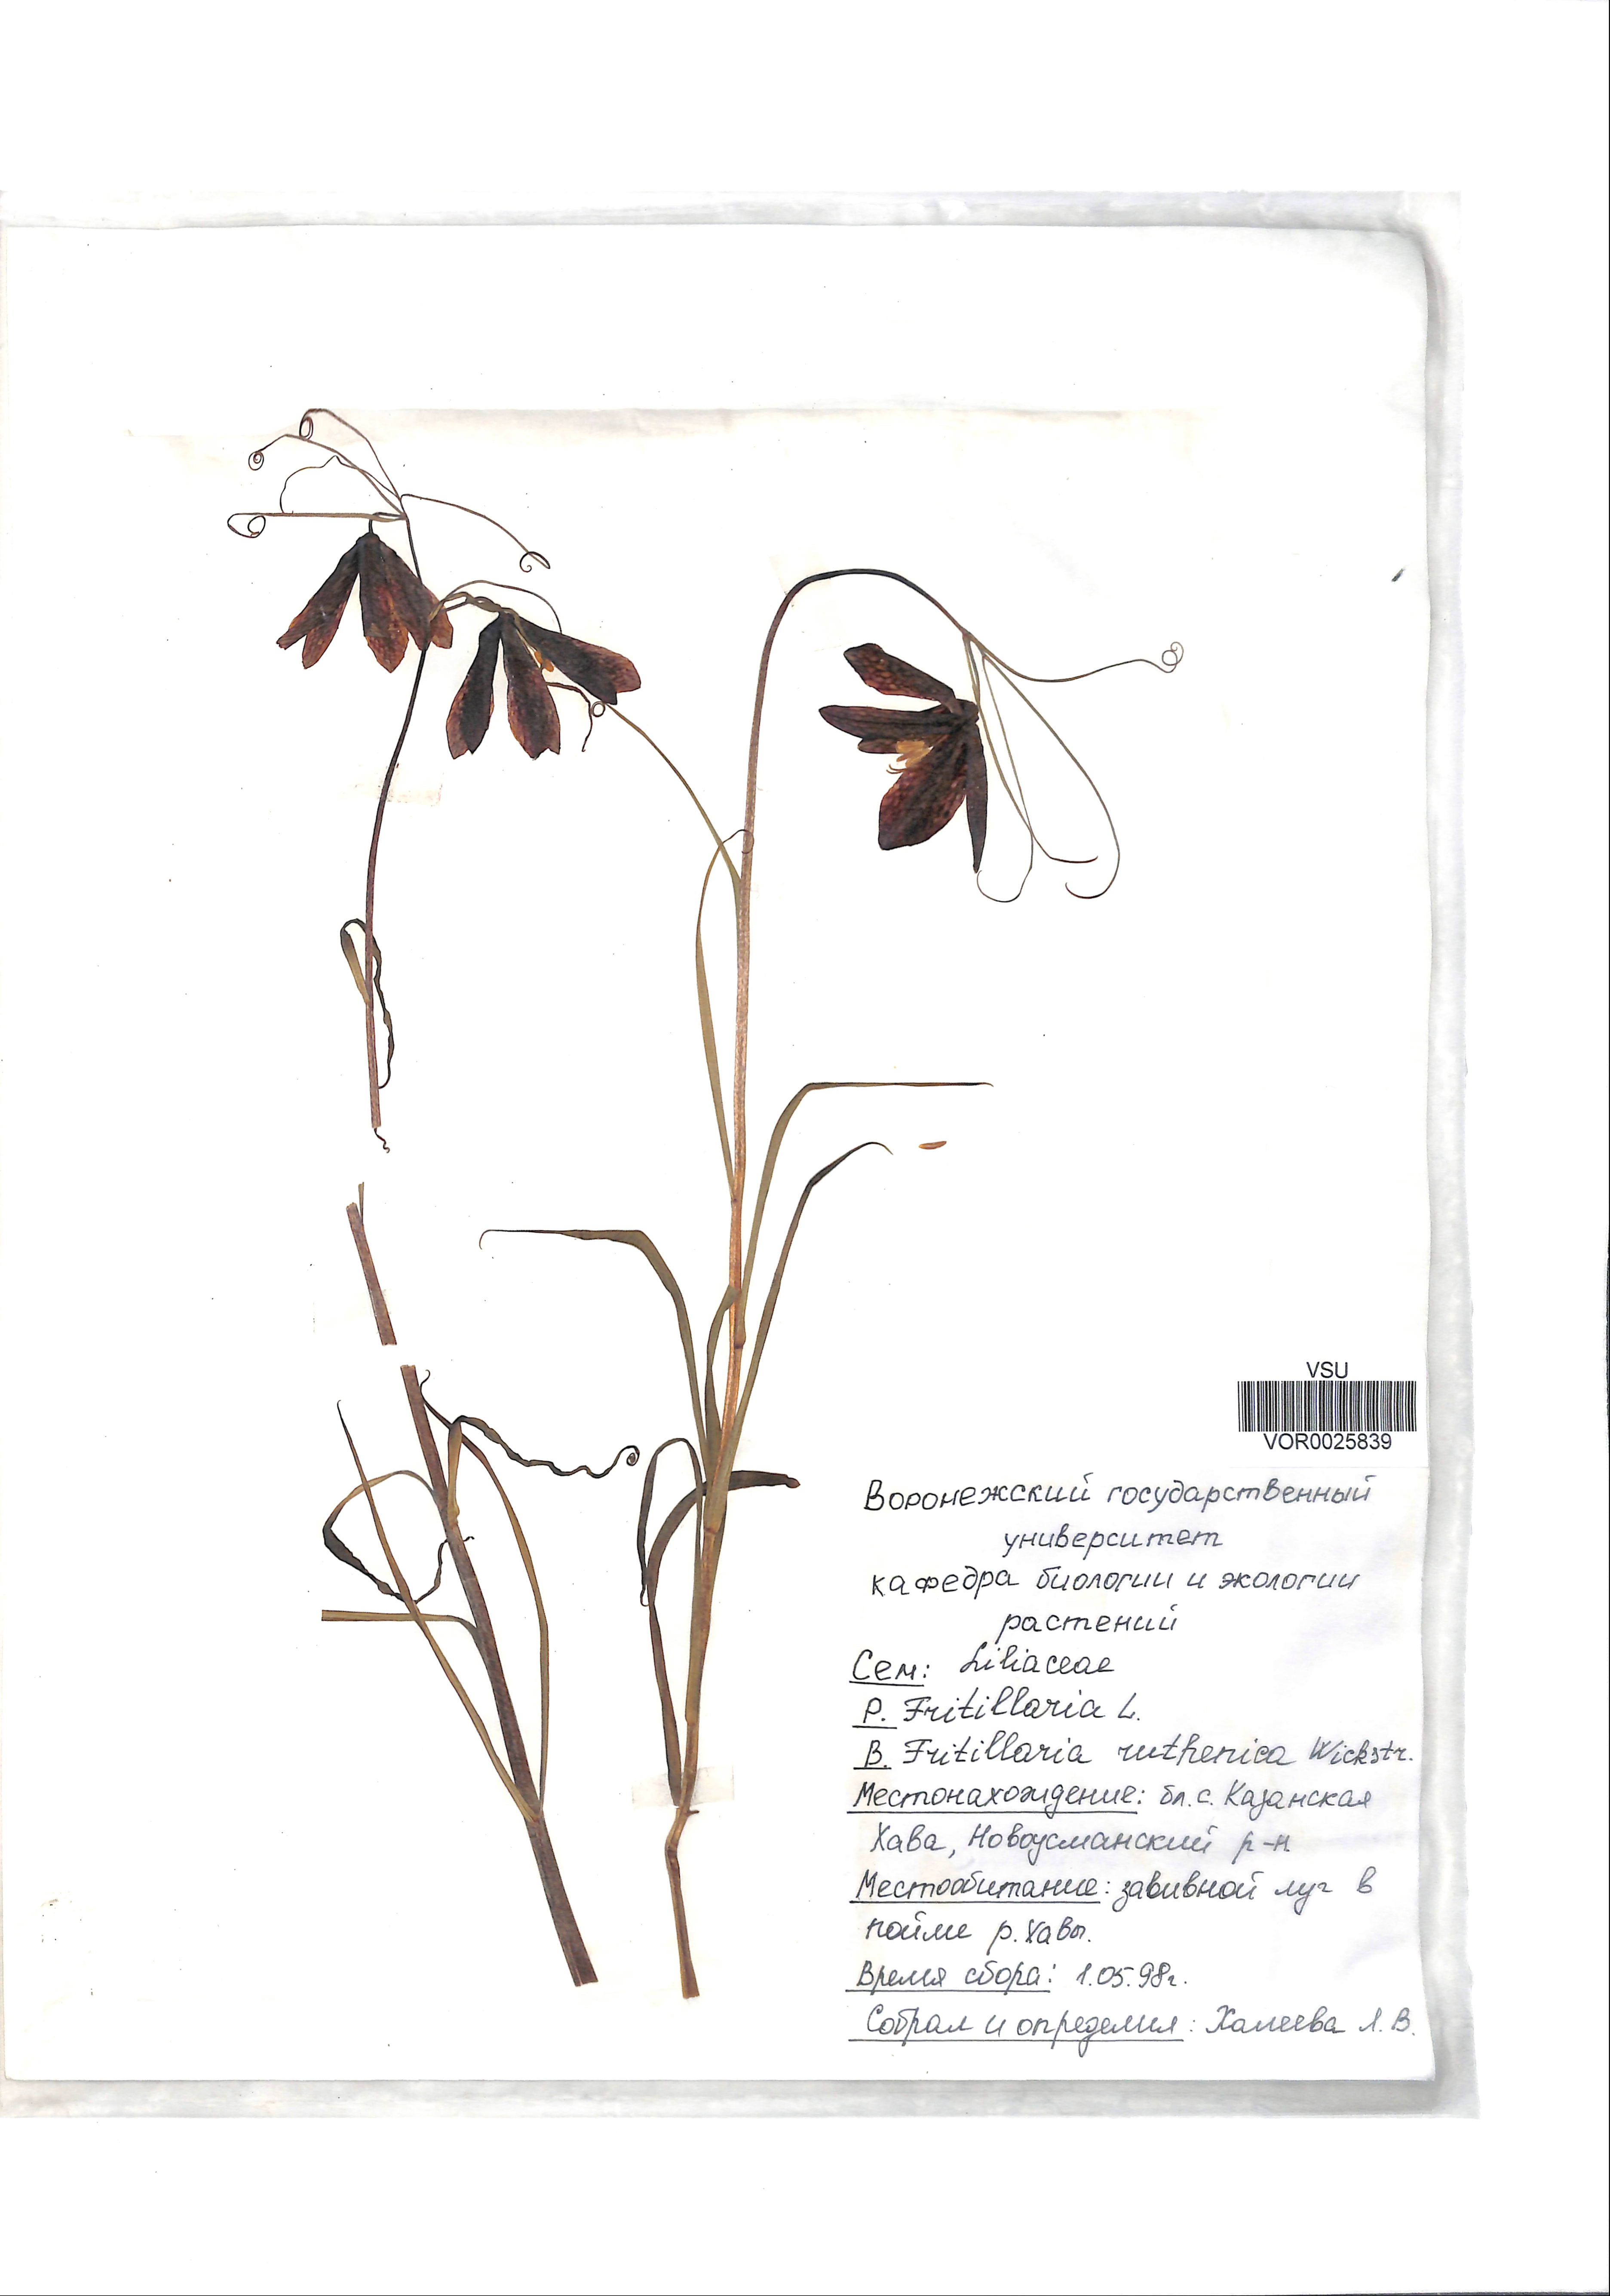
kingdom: Plantae
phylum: Tracheophyta
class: Liliopsida
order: Liliales
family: Liliaceae
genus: Fritillaria
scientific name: Fritillaria ruthenica
